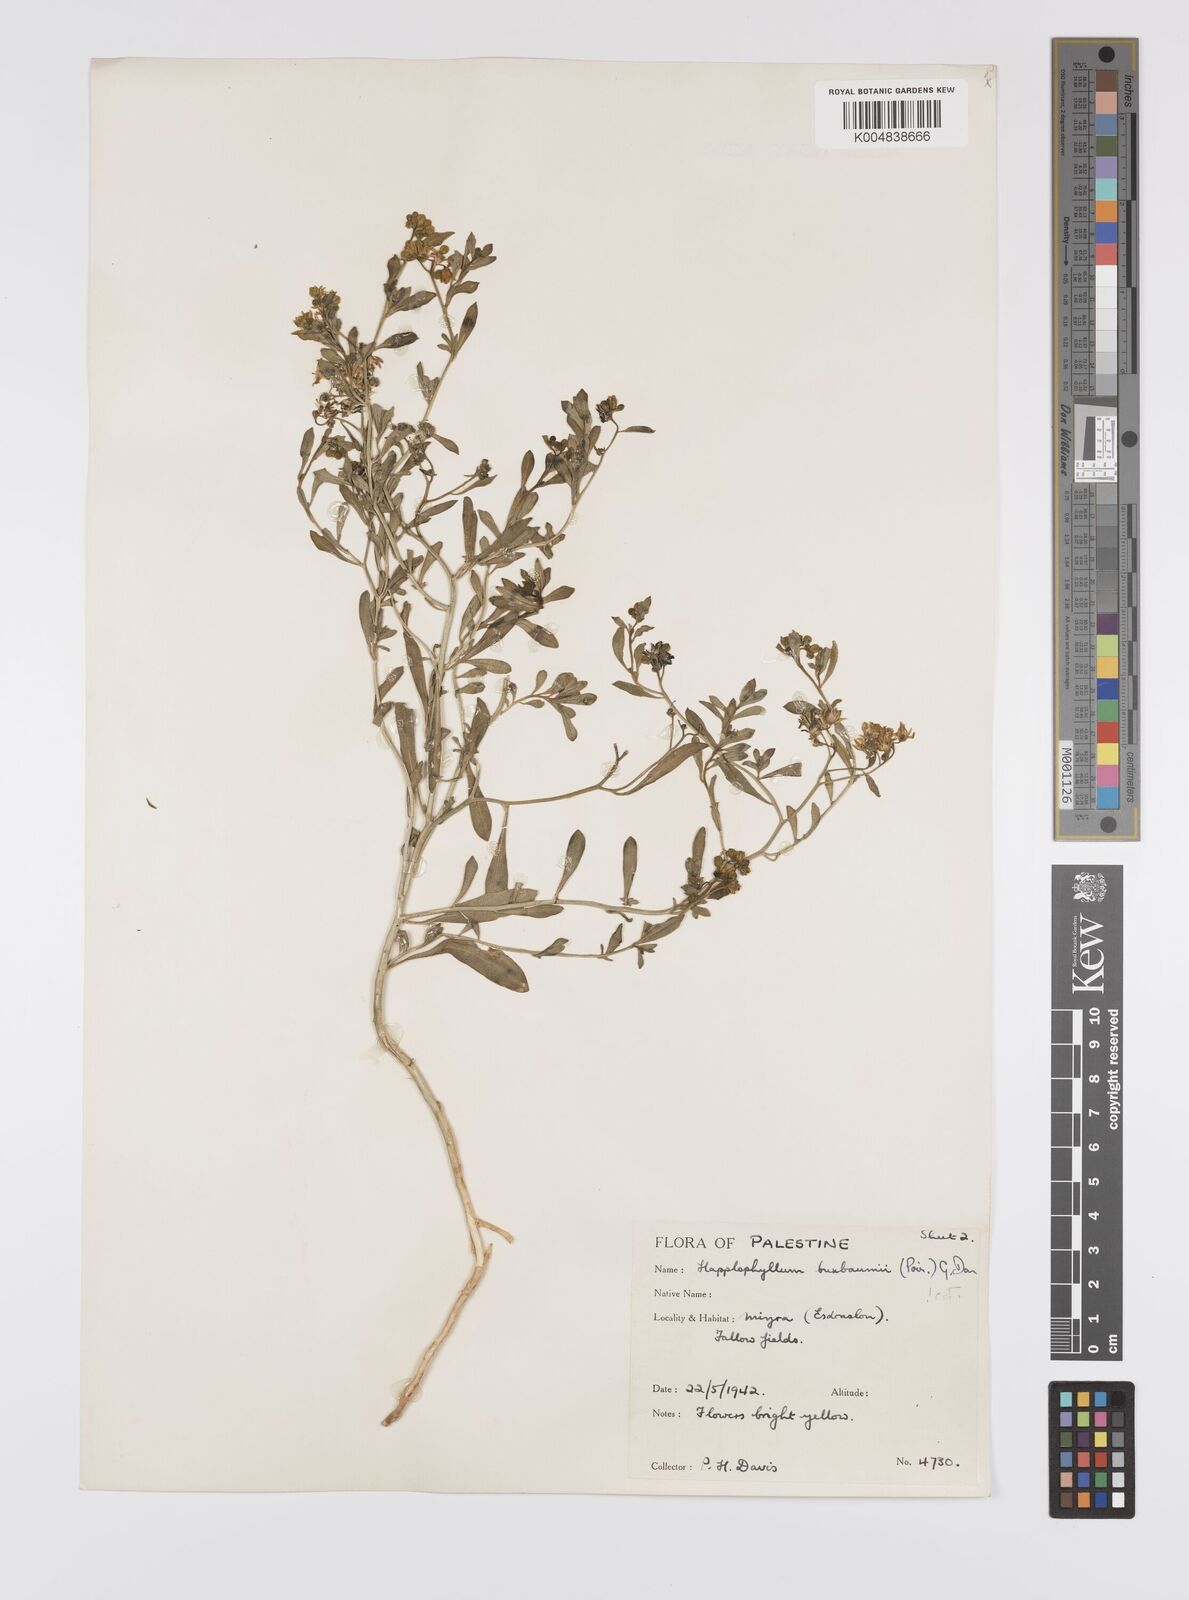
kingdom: Plantae
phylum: Tracheophyta
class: Magnoliopsida
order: Sapindales
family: Rutaceae
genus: Haplophyllum
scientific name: Haplophyllum
